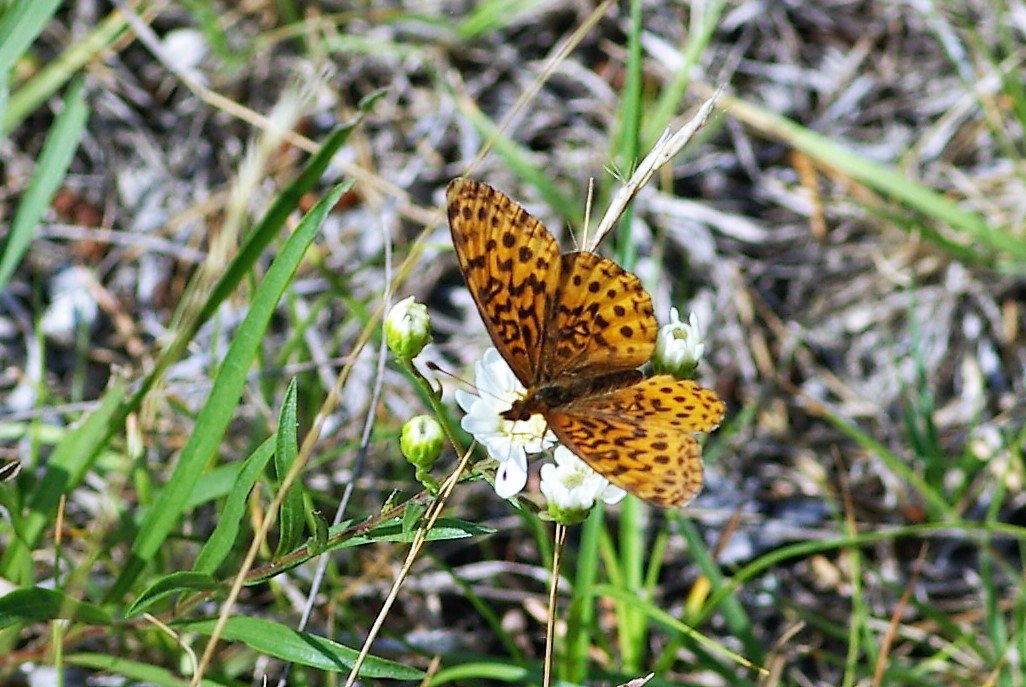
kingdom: Animalia
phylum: Arthropoda
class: Insecta
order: Lepidoptera
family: Nymphalidae
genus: Clossiana
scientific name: Clossiana toddi
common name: Meadow Fritillary
